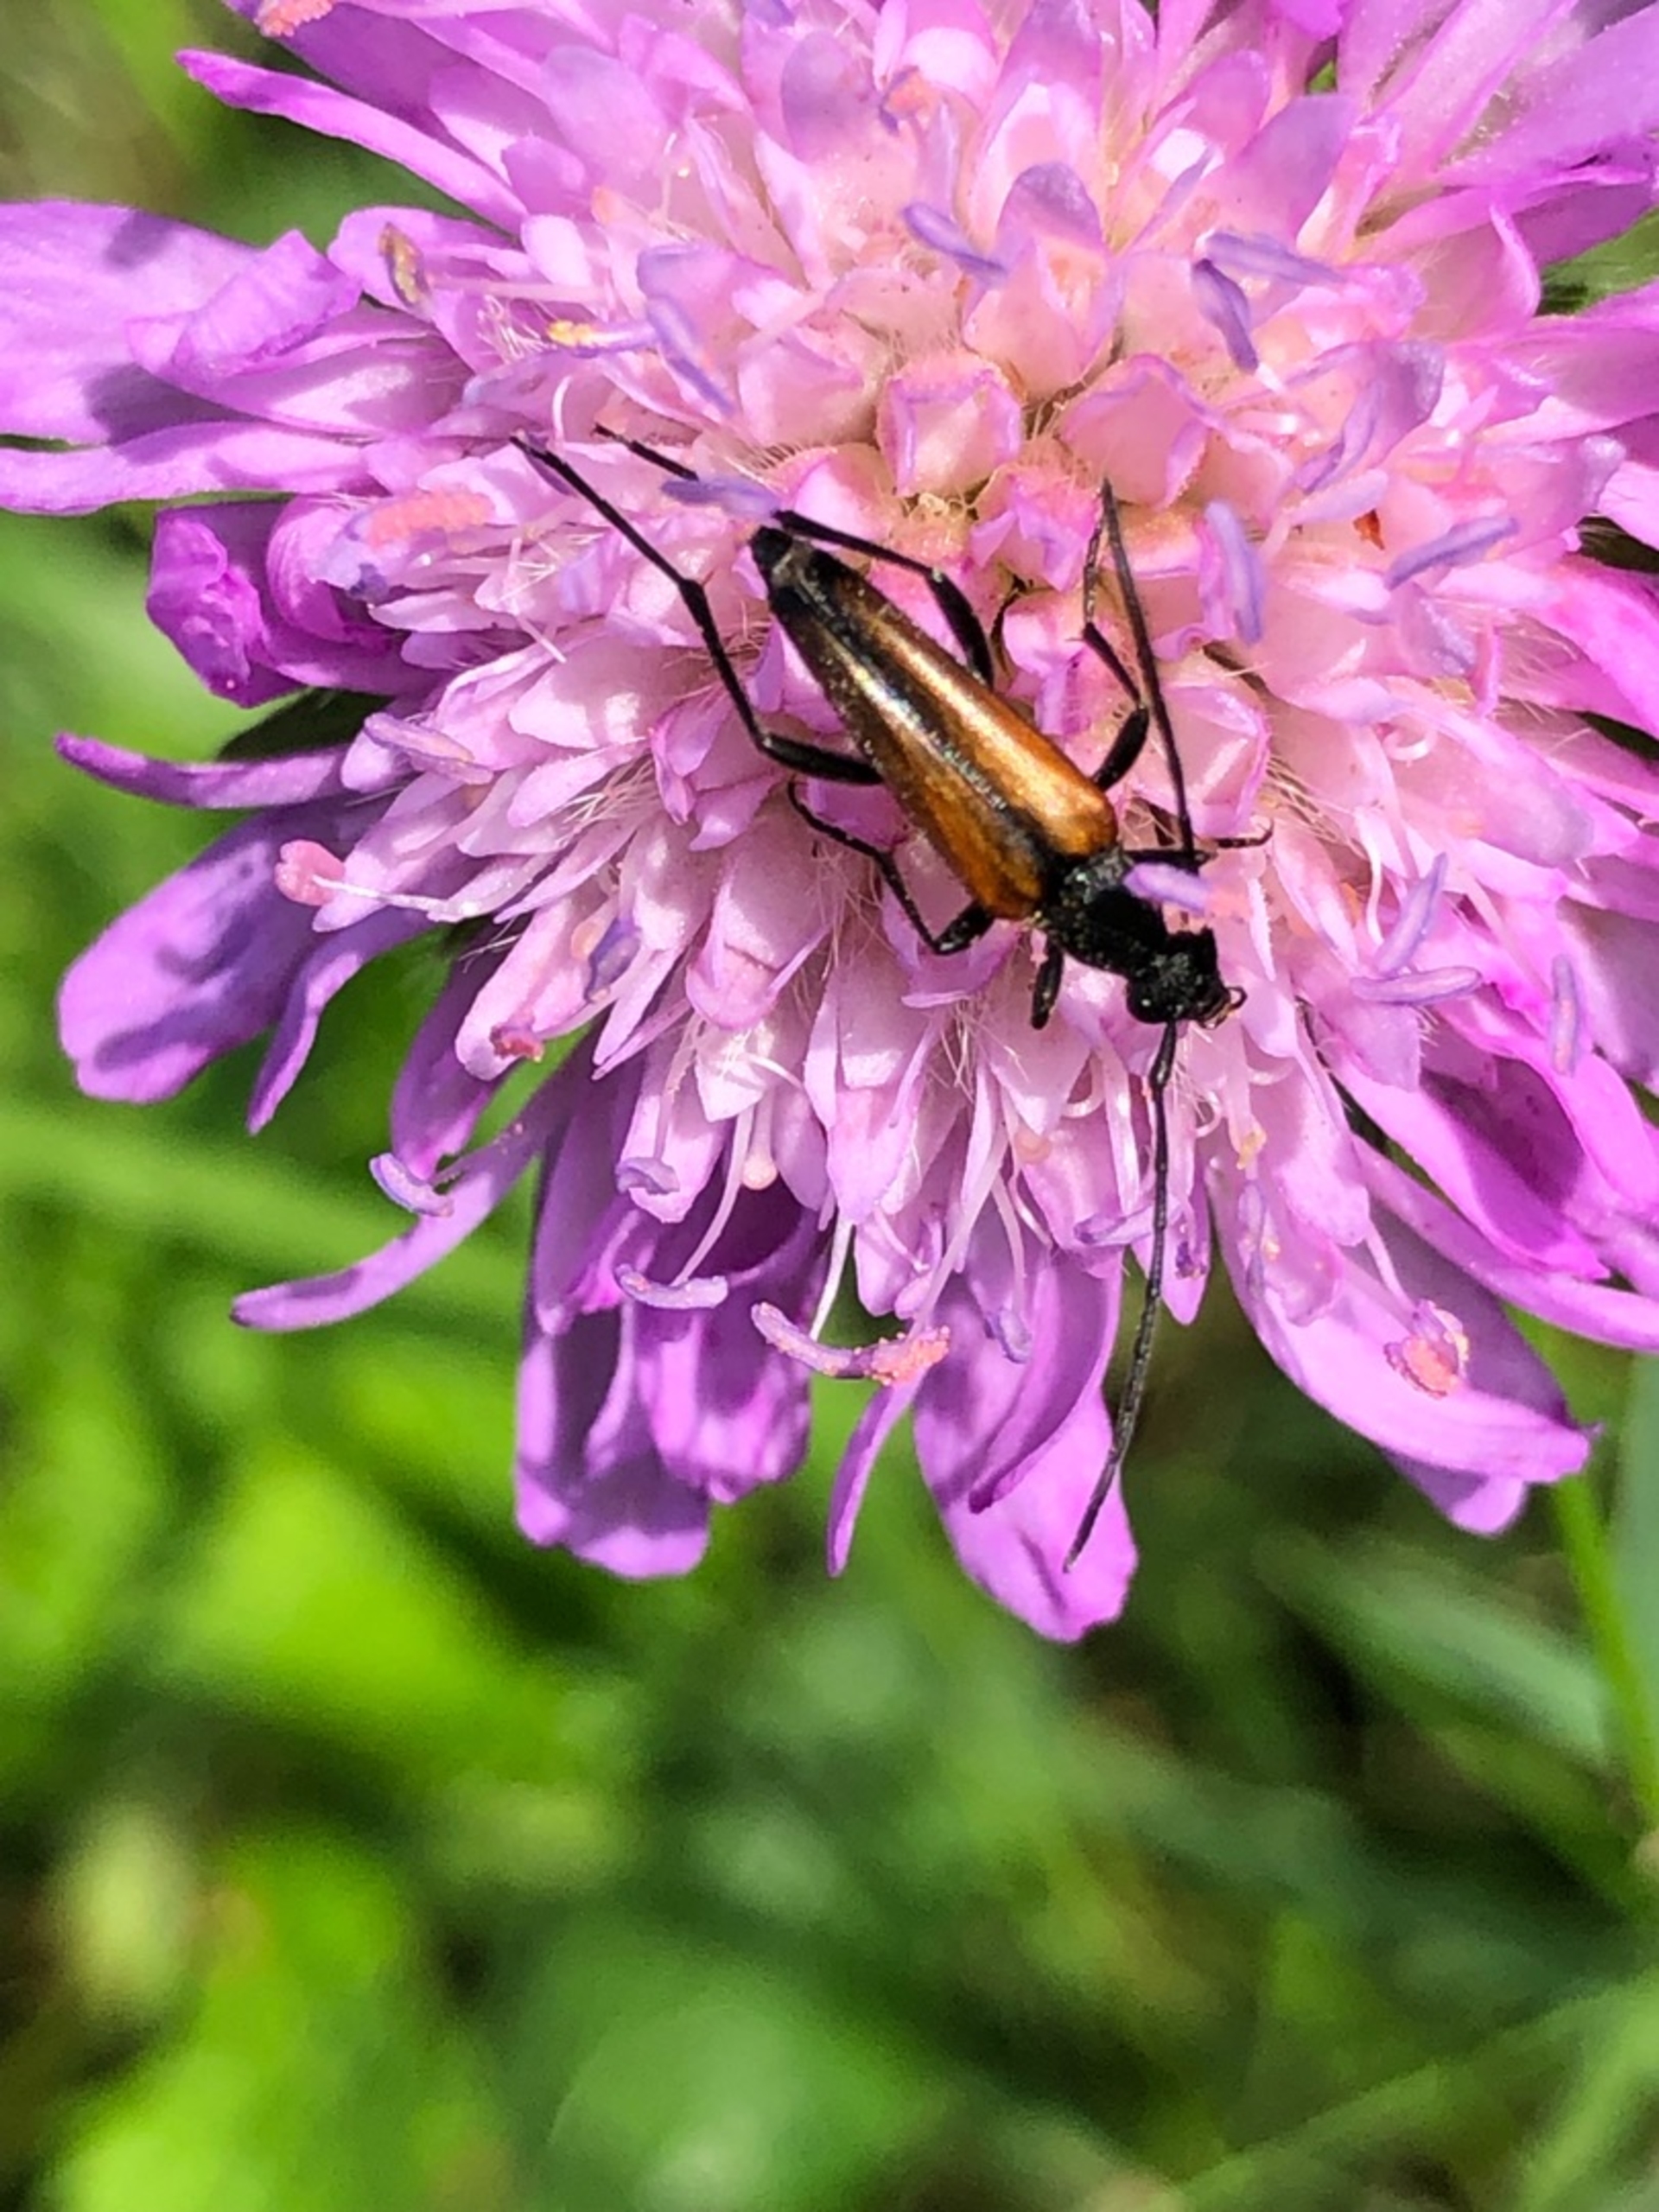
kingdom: Animalia
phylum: Arthropoda
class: Insecta
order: Coleoptera
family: Cerambycidae
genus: Stenurella
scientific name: Stenurella melanura
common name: Sortsømmet blomsterbuk
